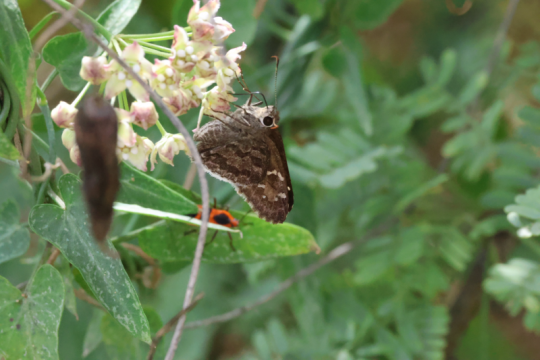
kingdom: Animalia
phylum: Arthropoda
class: Insecta
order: Lepidoptera
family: Hesperiidae
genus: Cogia
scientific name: Cogia hippalus
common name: Acacia Skipper
